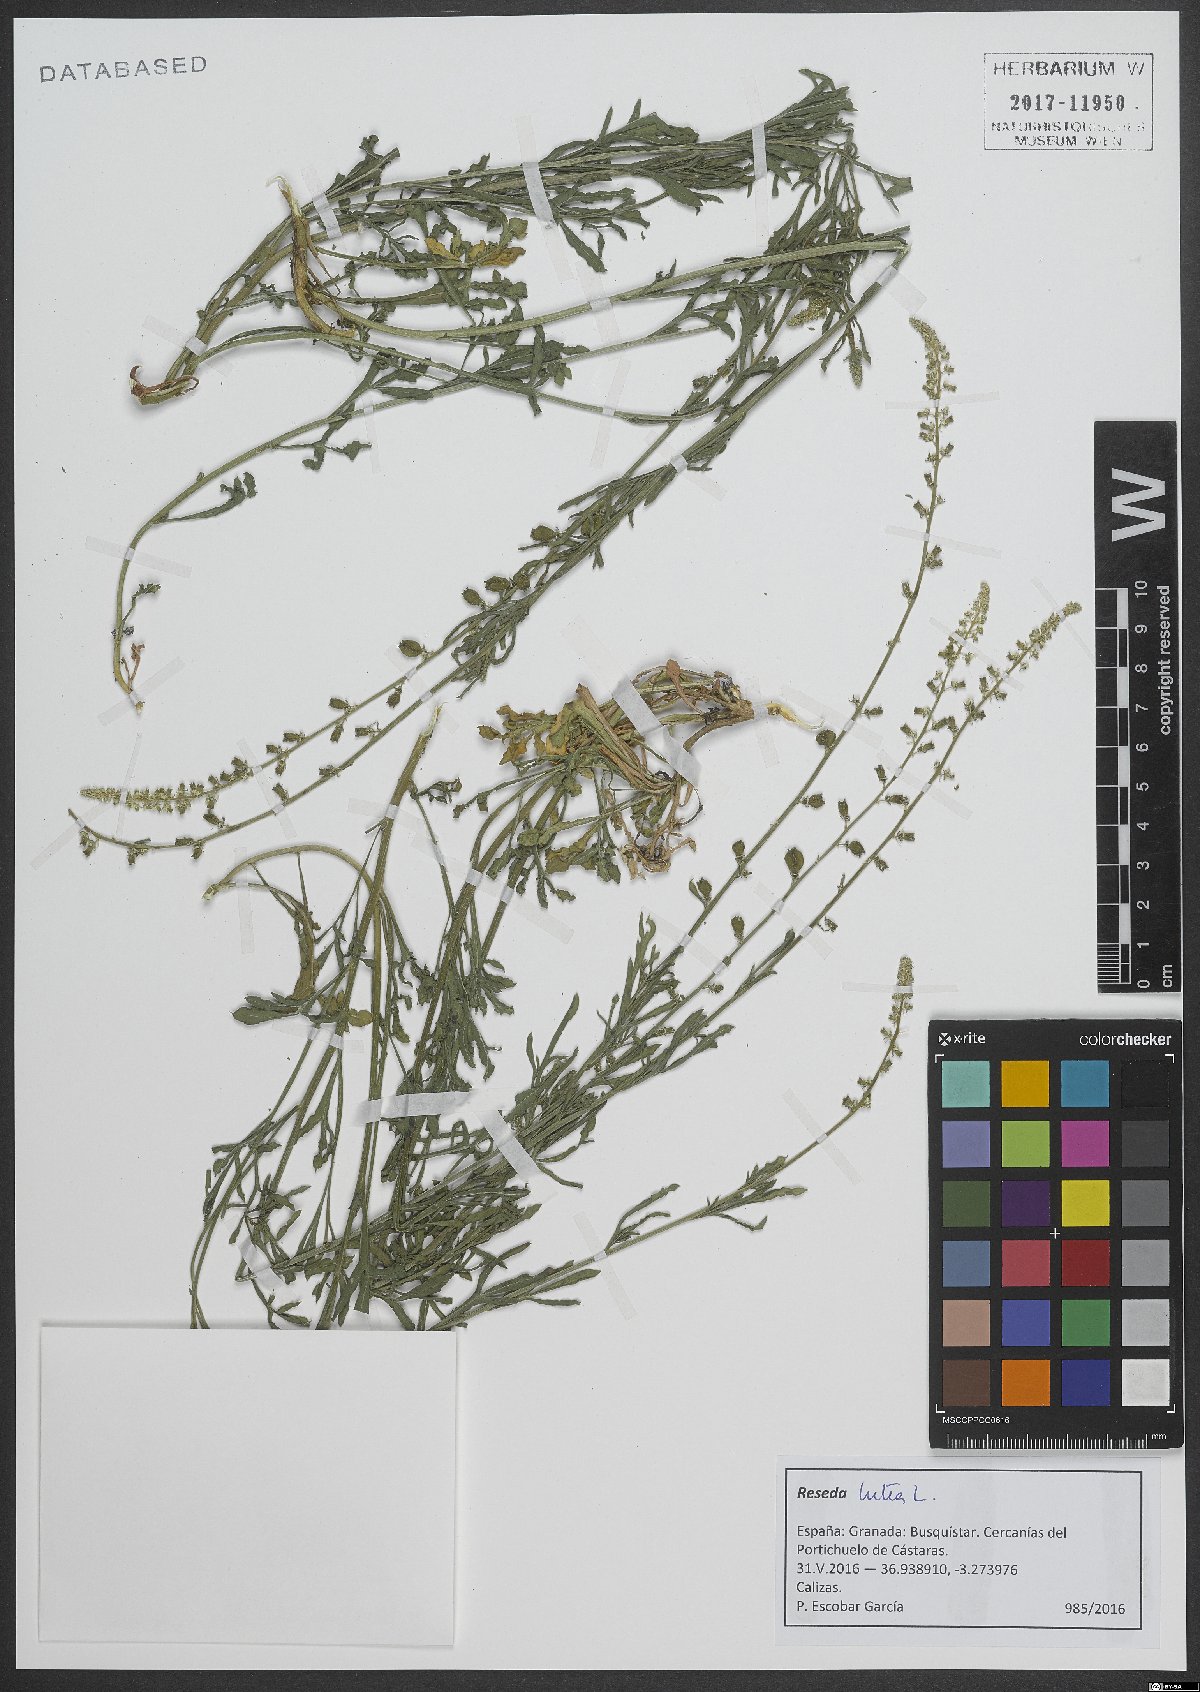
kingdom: Plantae
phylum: Tracheophyta
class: Magnoliopsida
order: Brassicales
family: Resedaceae
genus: Reseda
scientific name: Reseda lutea
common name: Wild mignonette
